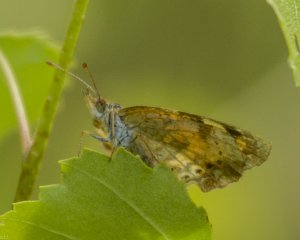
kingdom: Animalia
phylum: Arthropoda
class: Insecta
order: Lepidoptera
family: Nymphalidae
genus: Phyciodes
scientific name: Phyciodes tharos
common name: Northern Crescent
